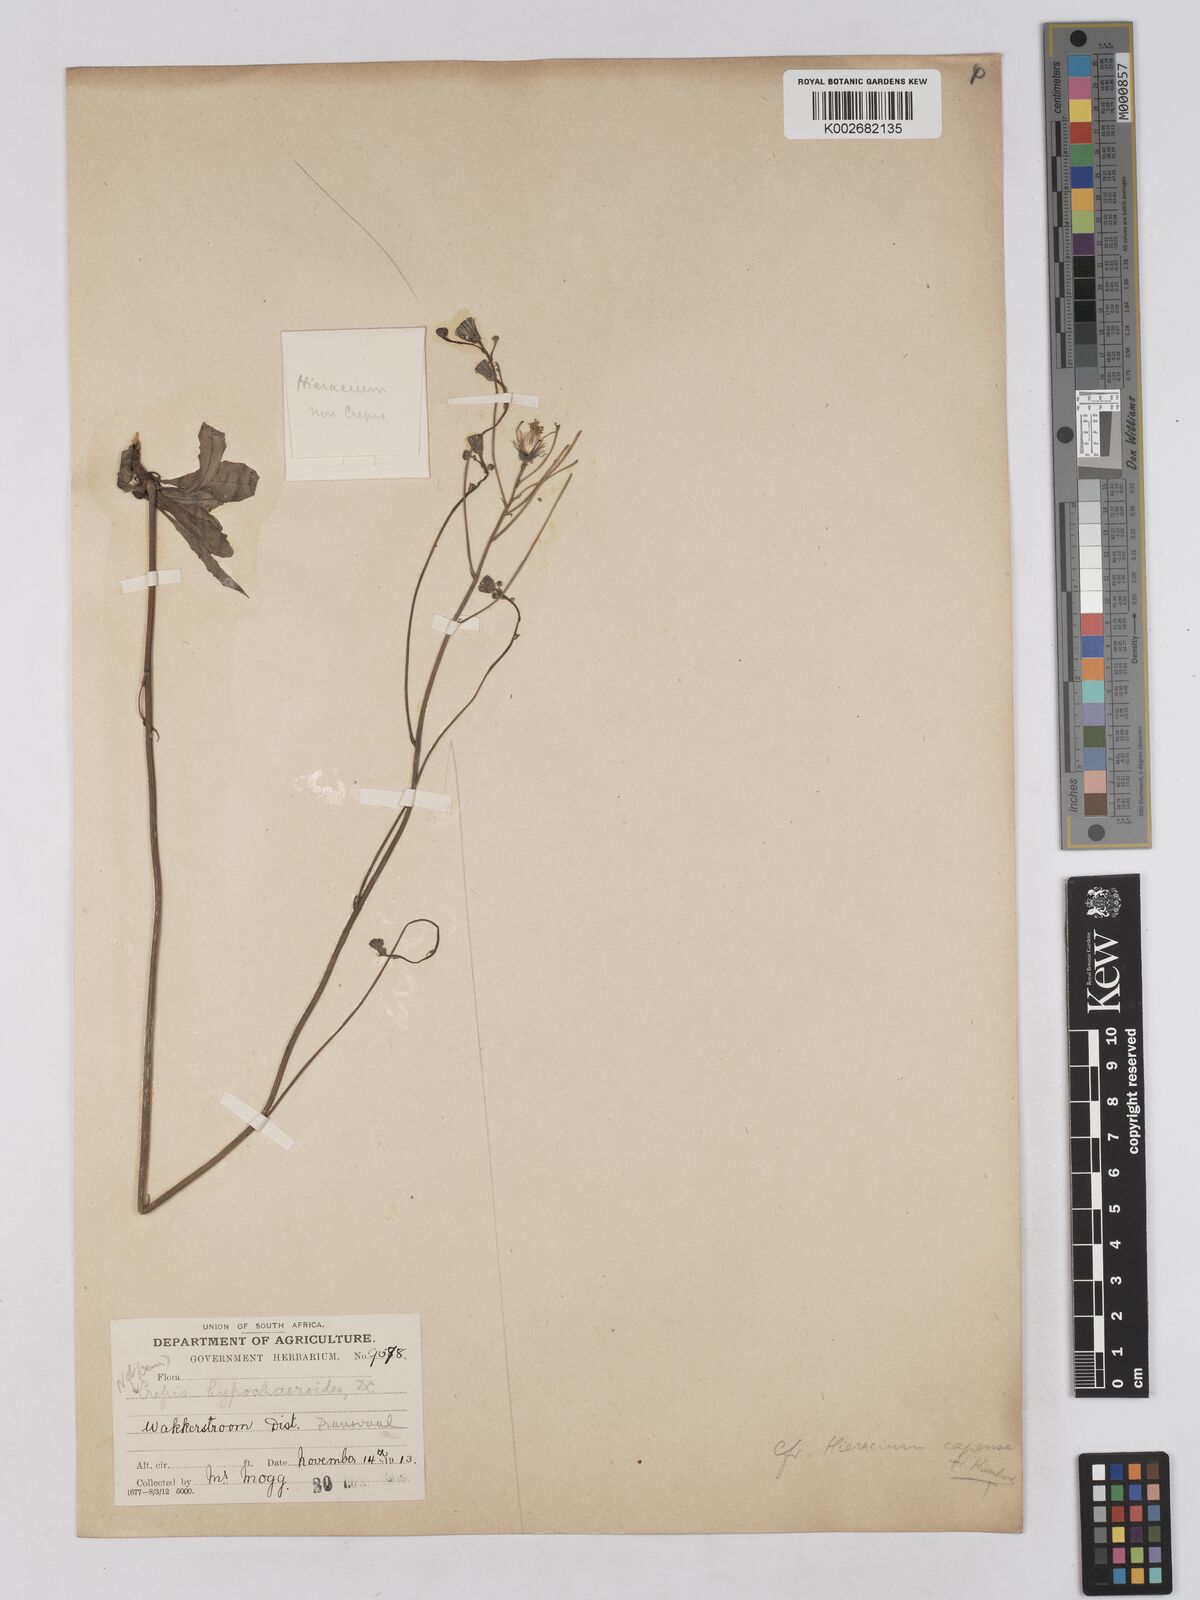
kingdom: Plantae
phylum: Tracheophyta
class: Magnoliopsida
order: Asterales
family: Asteraceae
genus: Tolpis
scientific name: Tolpis capensis
